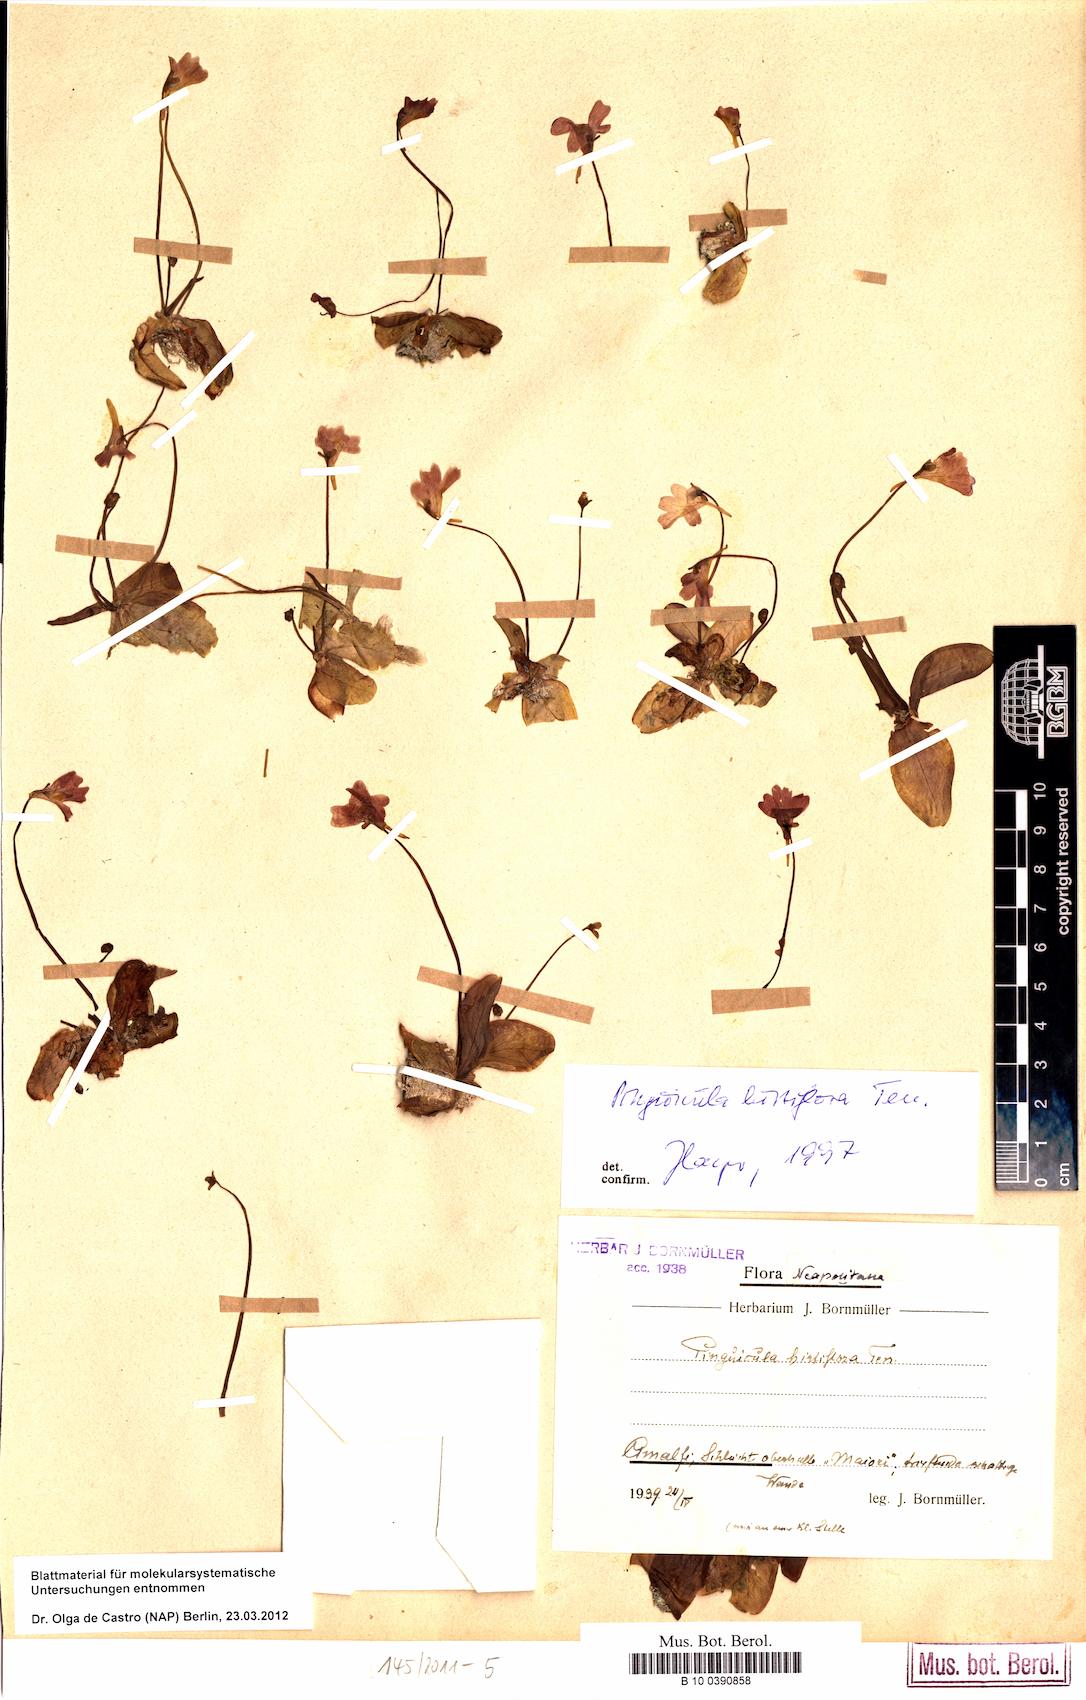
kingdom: Plantae
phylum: Tracheophyta
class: Magnoliopsida
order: Lamiales
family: Lentibulariaceae
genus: Pinguicula
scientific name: Pinguicula crystallina
